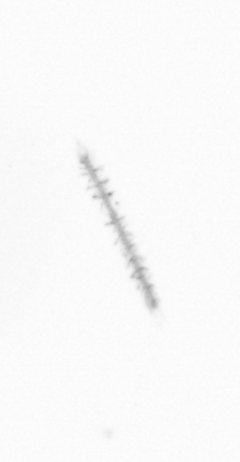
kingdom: Chromista
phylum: Ochrophyta
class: Bacillariophyceae
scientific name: Bacillariophyceae
